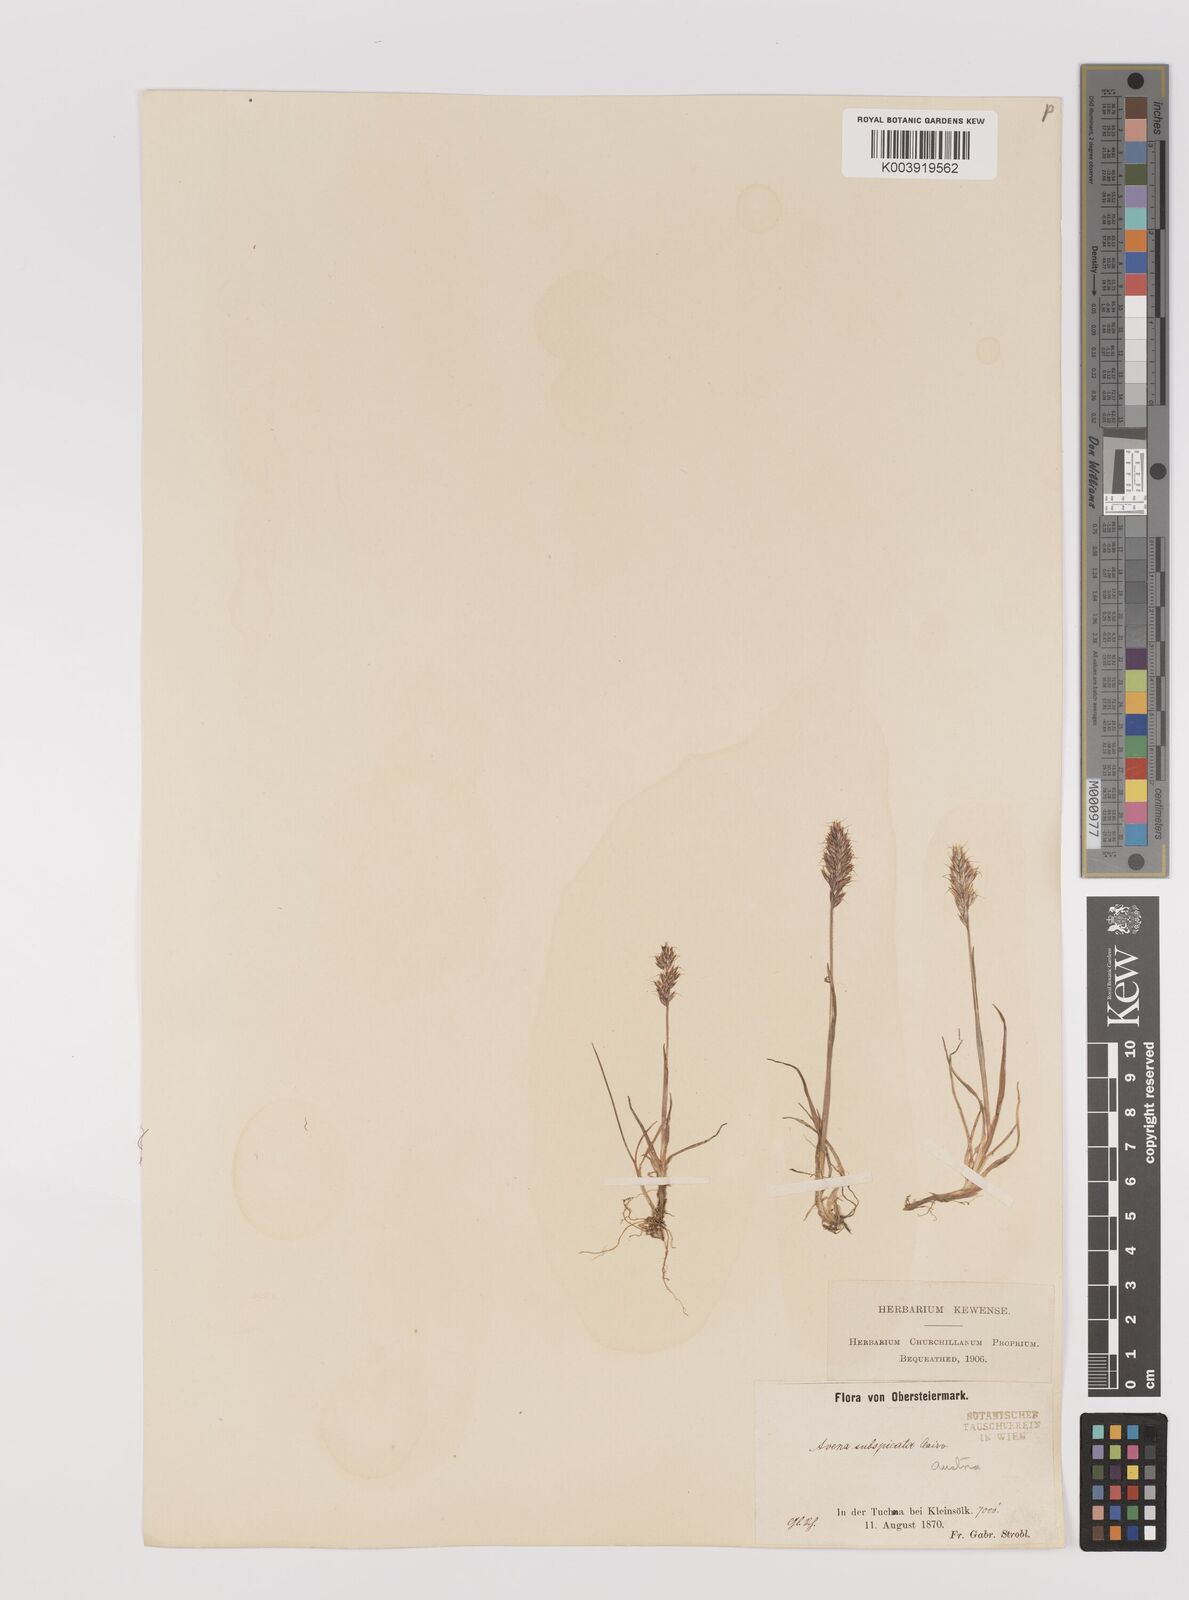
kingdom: Plantae
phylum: Tracheophyta
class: Liliopsida
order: Poales
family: Poaceae
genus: Koeleria
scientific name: Koeleria spicata
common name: Mountain trisetum
